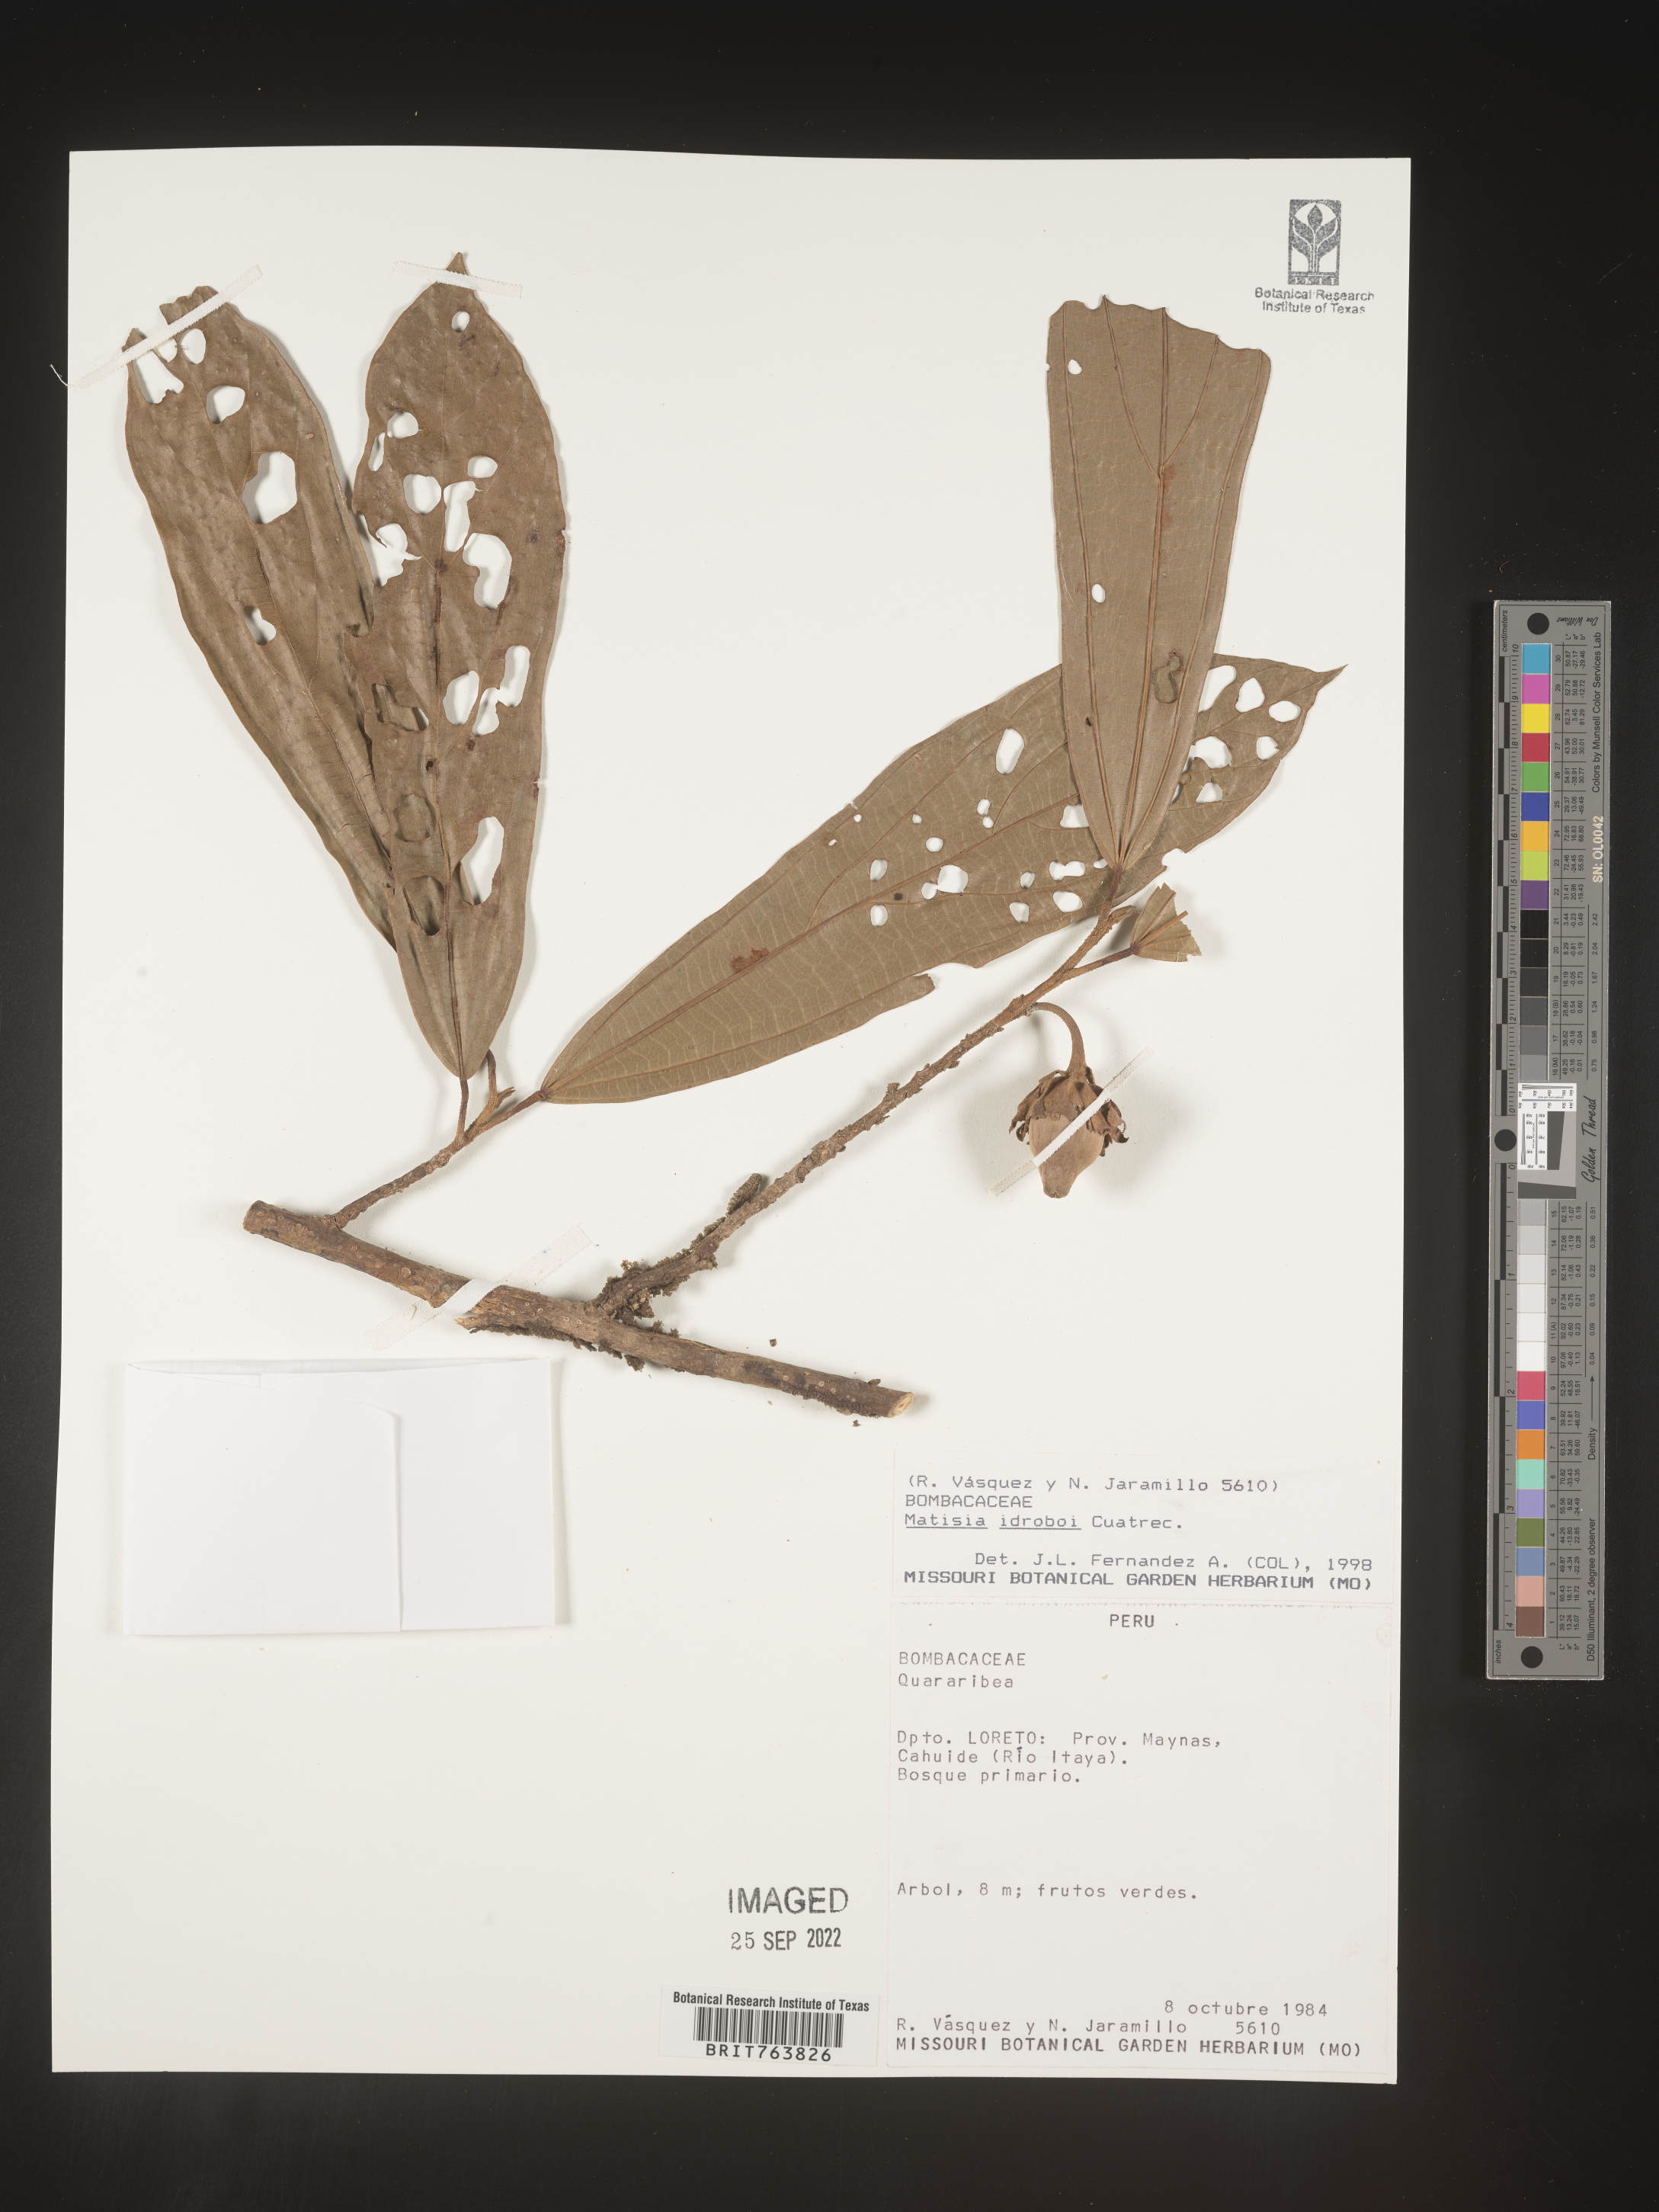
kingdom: Plantae
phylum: Tracheophyta
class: Magnoliopsida
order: Malvales
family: Malvaceae
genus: Matisia
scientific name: Matisia
